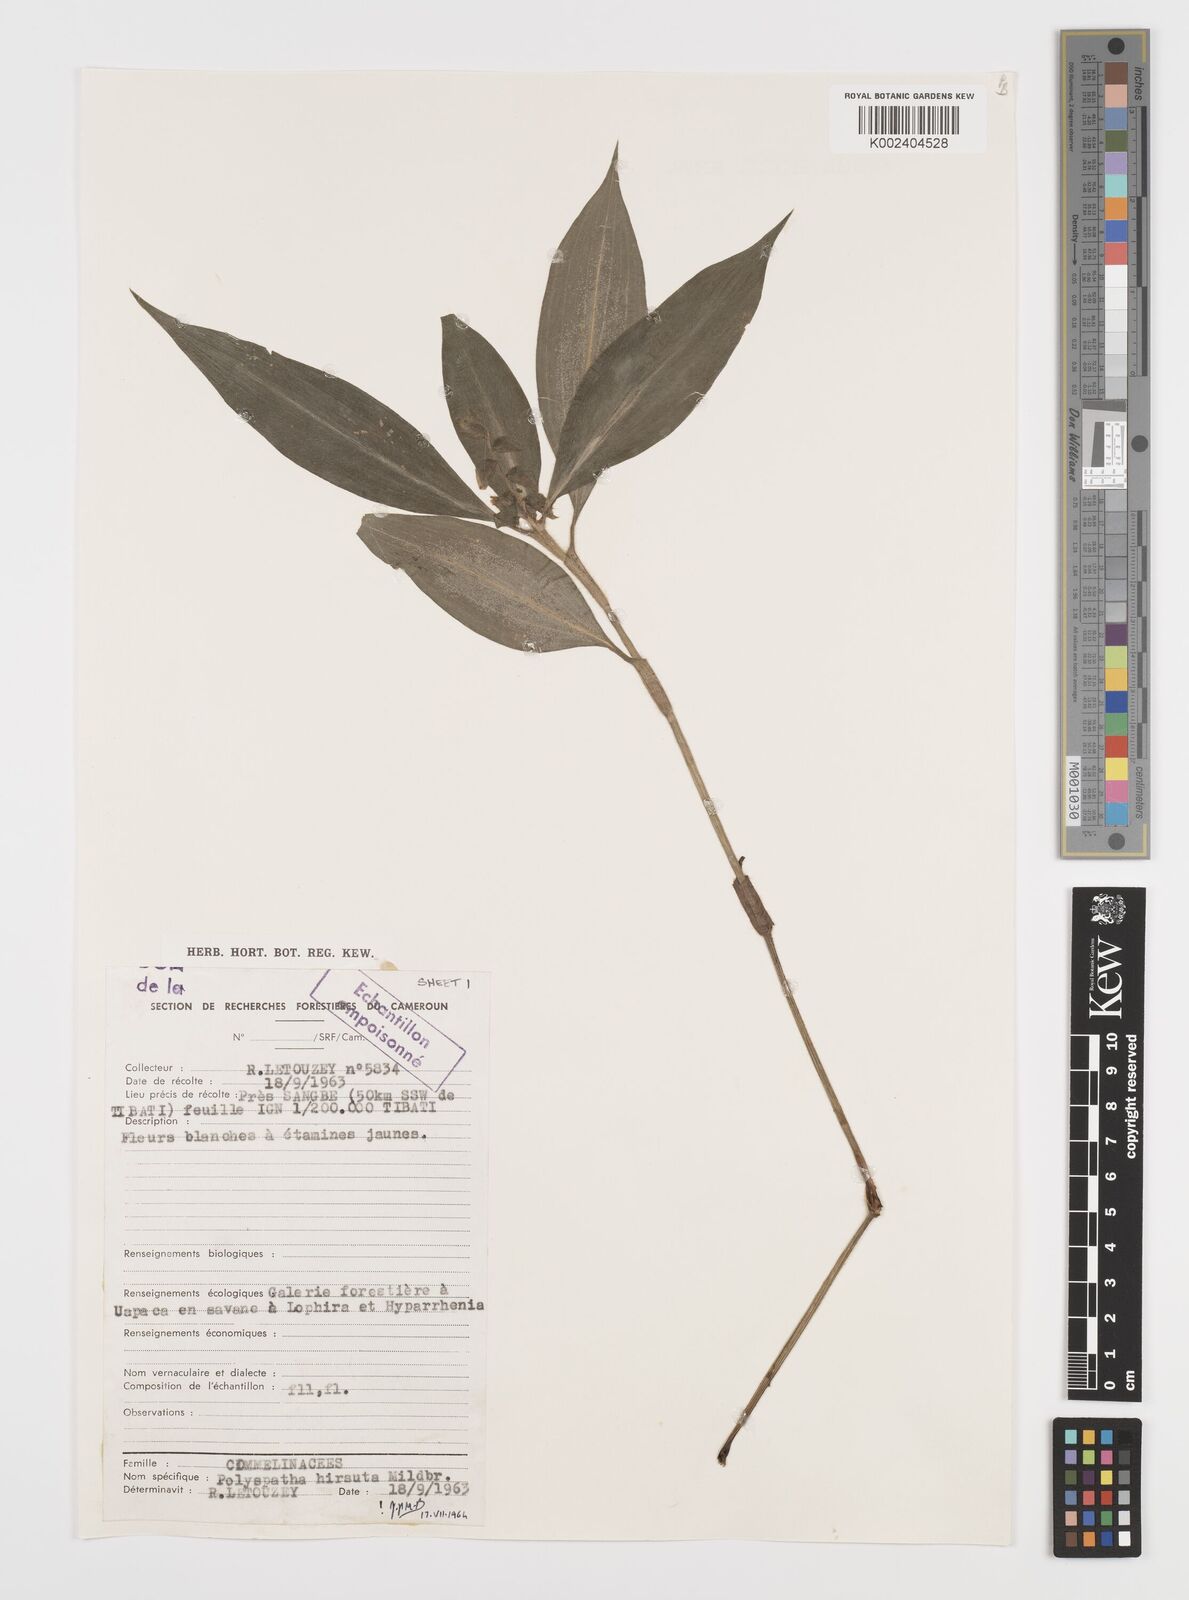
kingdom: Plantae
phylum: Tracheophyta
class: Liliopsida
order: Commelinales
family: Commelinaceae
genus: Polyspatha
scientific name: Polyspatha hirsuta
